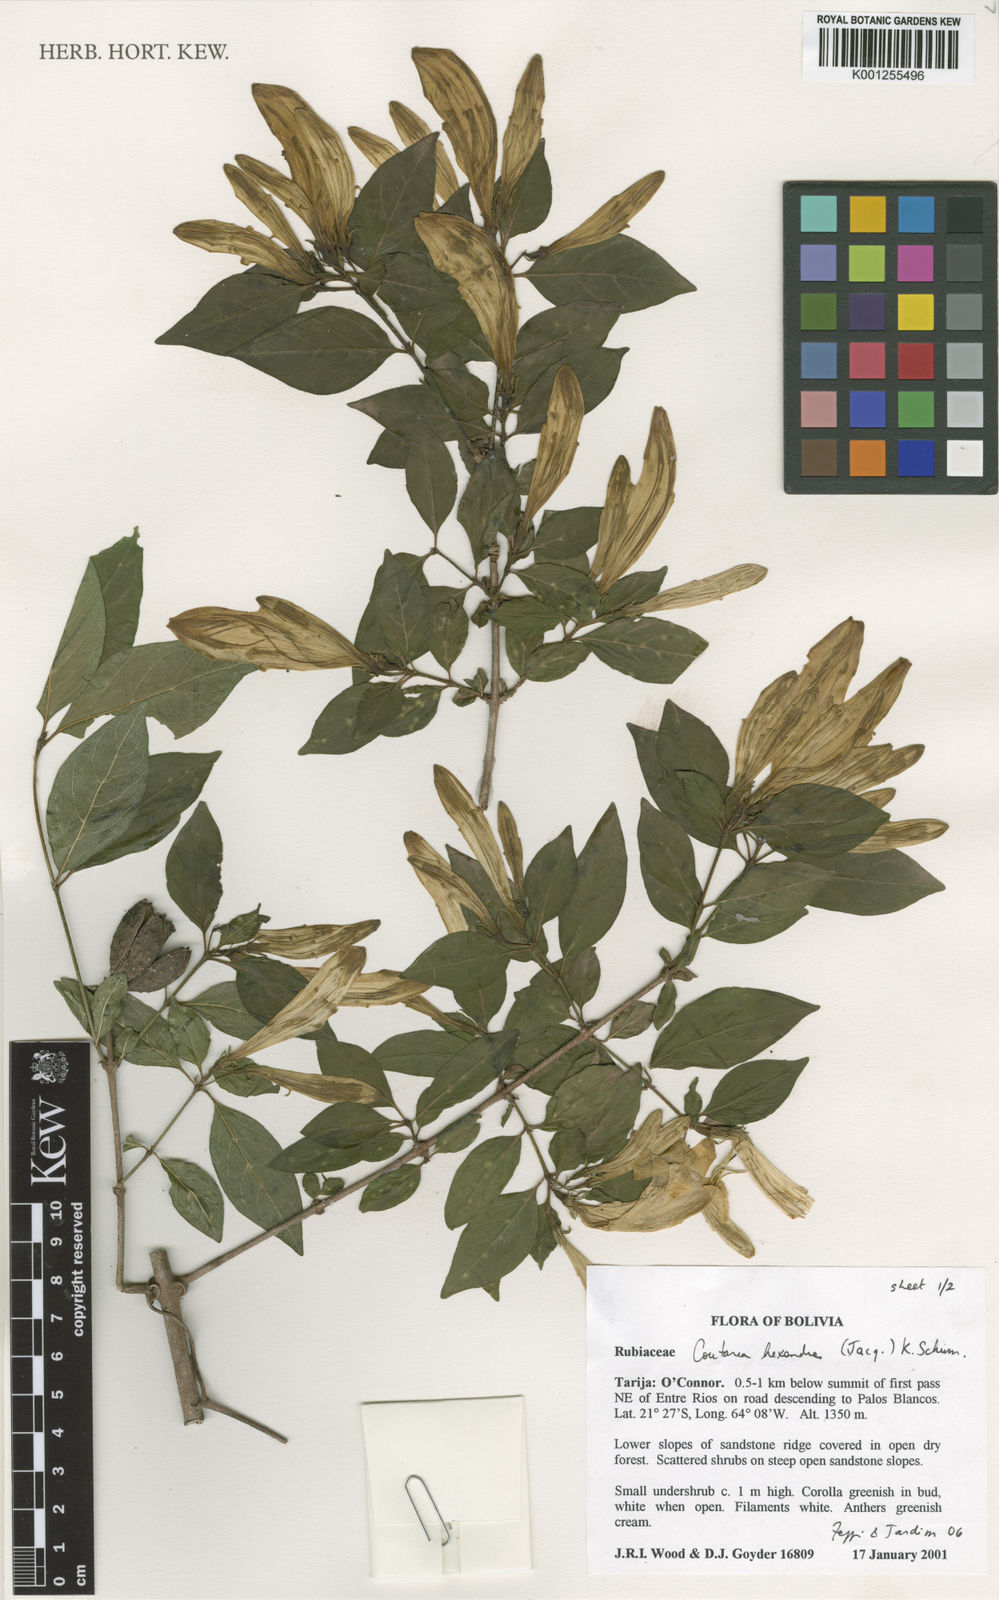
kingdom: Plantae
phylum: Tracheophyta
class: Magnoliopsida
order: Gentianales
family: Rubiaceae
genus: Coutarea
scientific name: Coutarea hexandra
